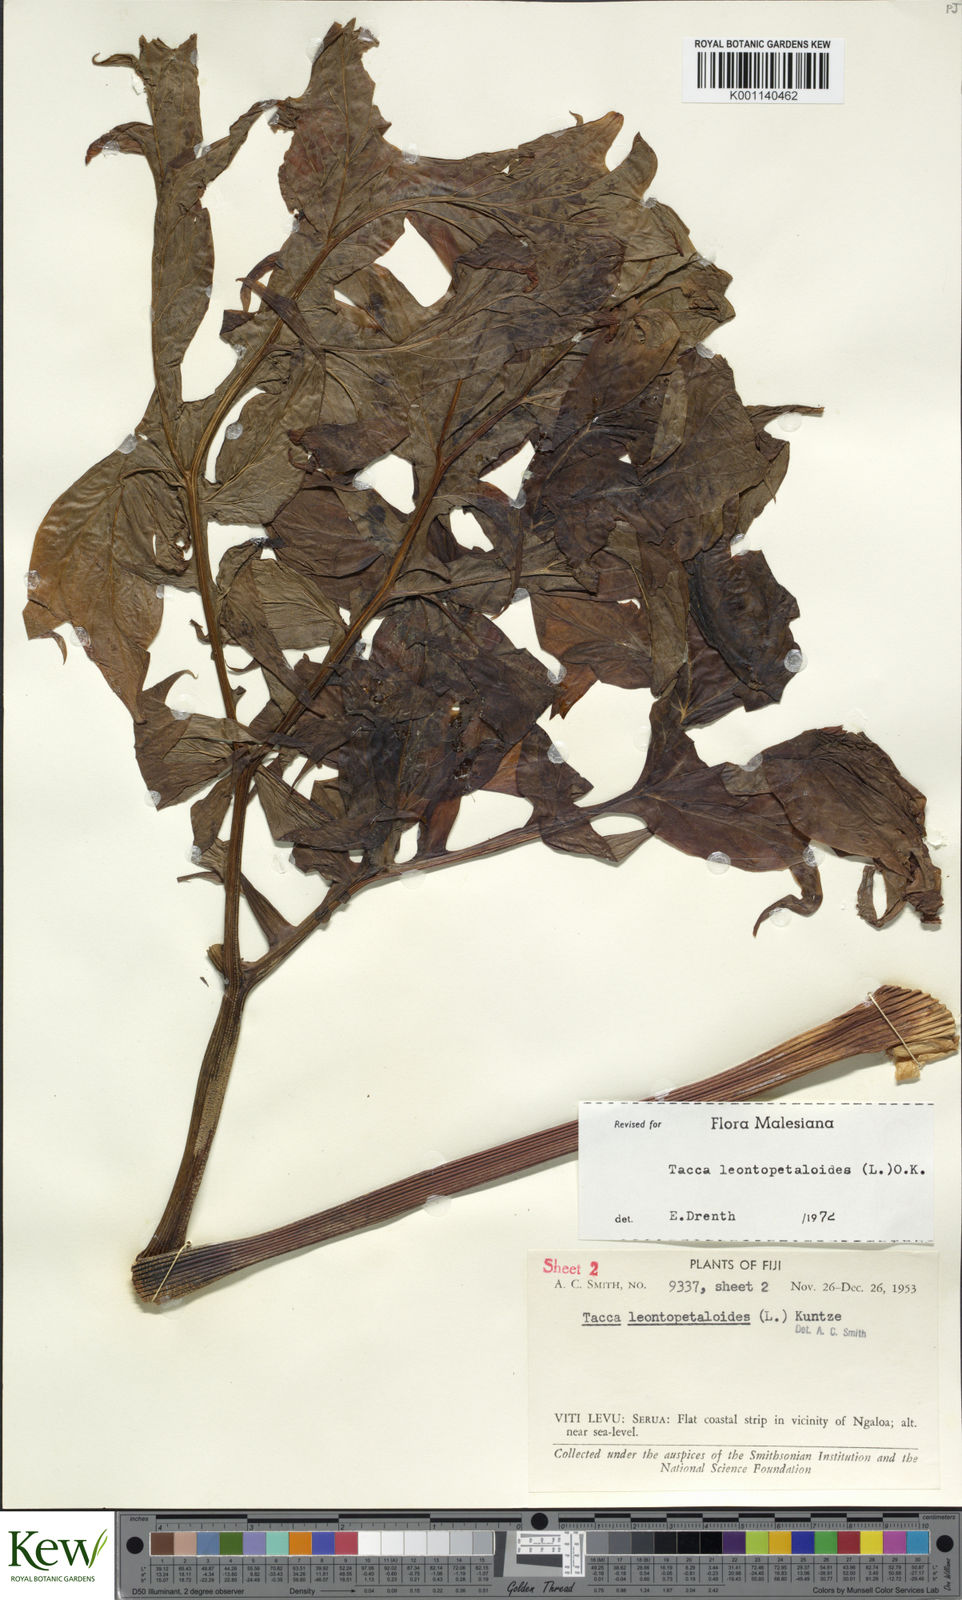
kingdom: Plantae
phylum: Tracheophyta
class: Liliopsida
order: Dioscoreales
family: Dioscoreaceae
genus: Tacca
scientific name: Tacca leontopetaloides
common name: Arrowroot
